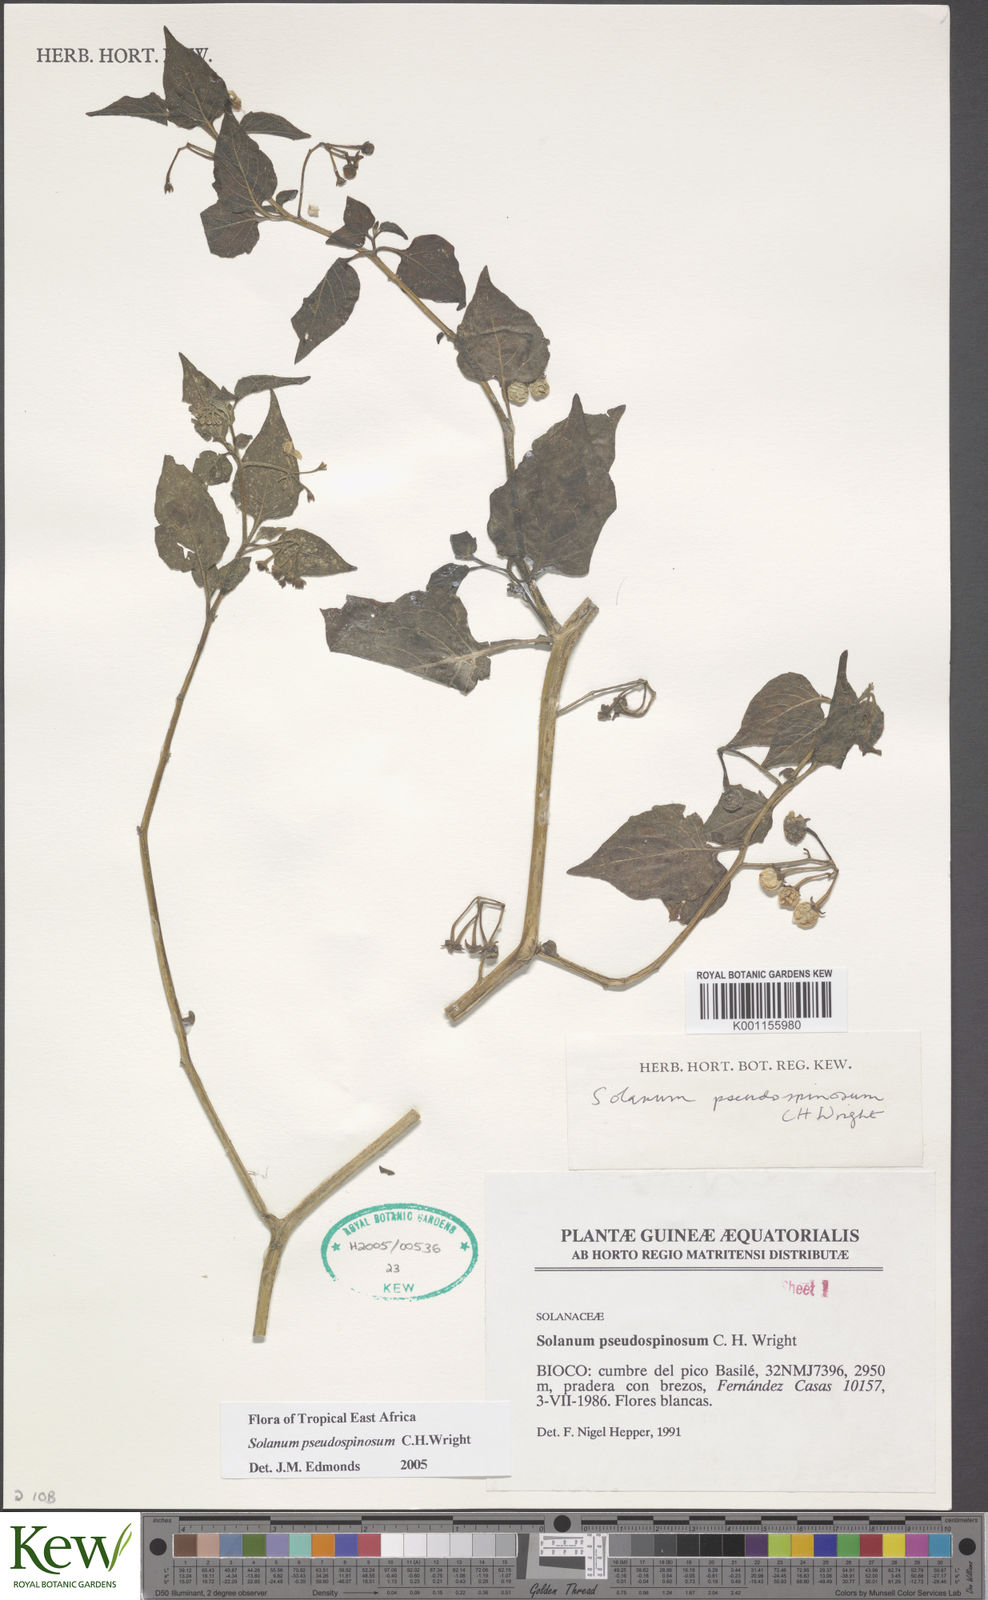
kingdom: Plantae
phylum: Tracheophyta
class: Magnoliopsida
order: Solanales
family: Solanaceae
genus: Solanum
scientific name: Solanum pseudospinosum
